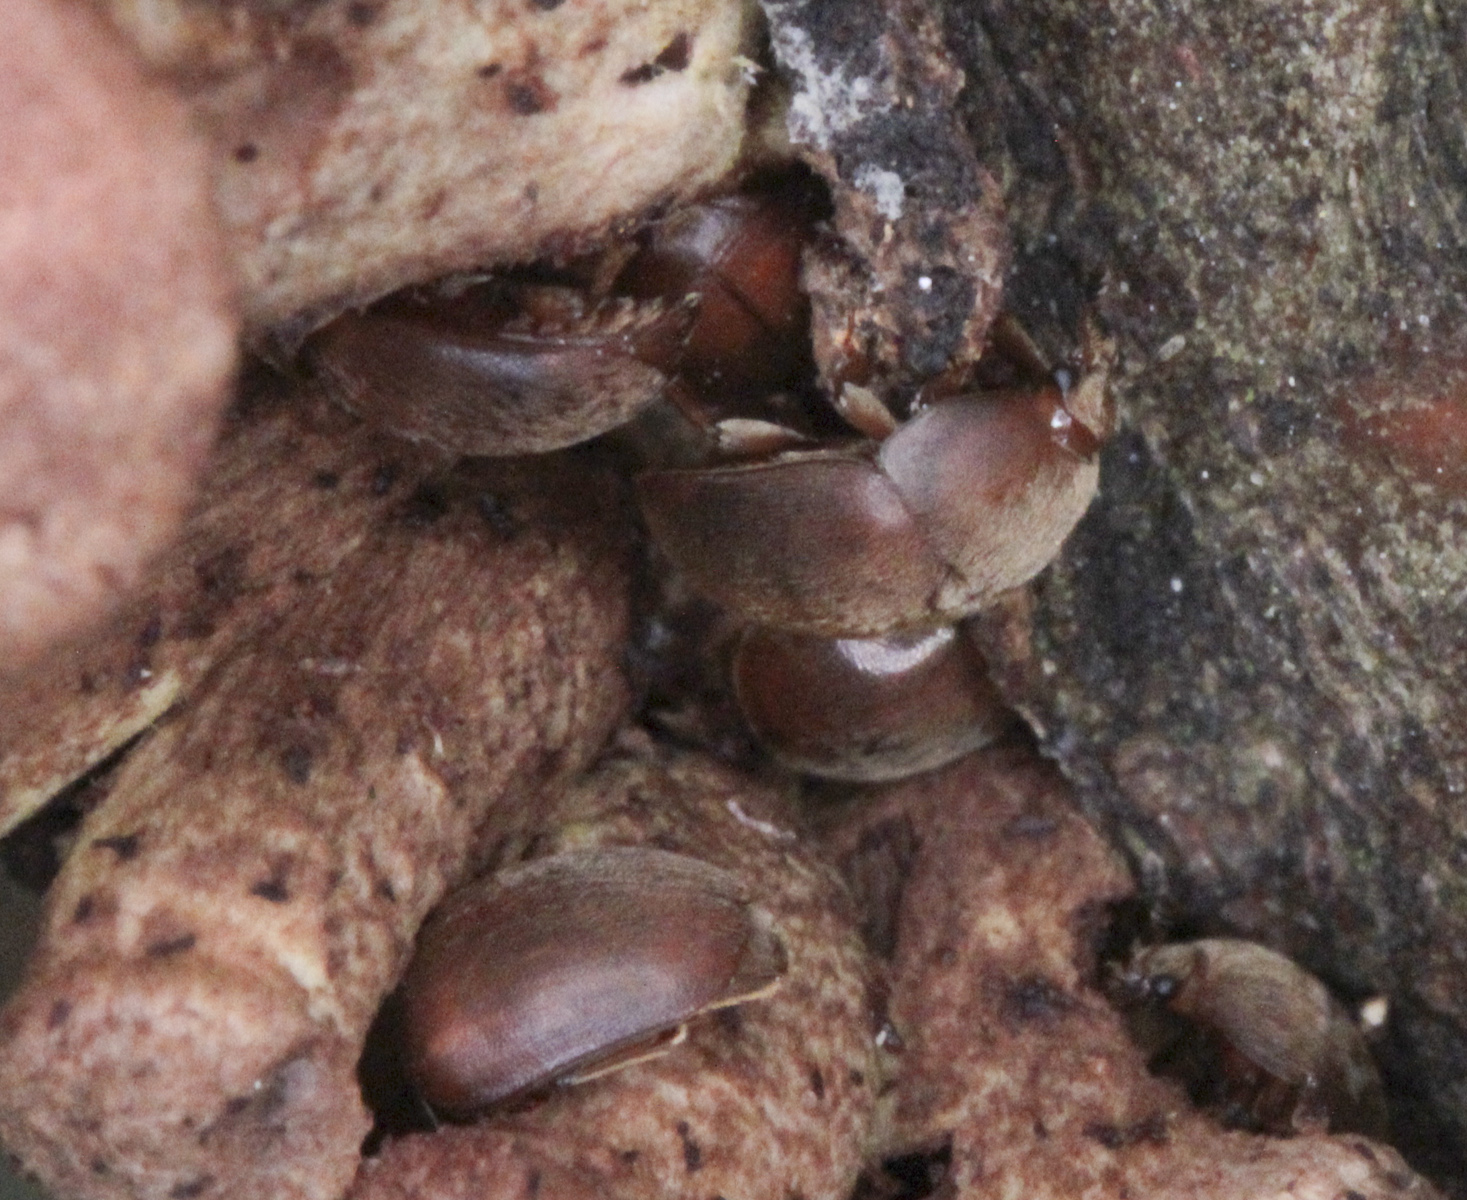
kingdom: Animalia
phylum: Arthropoda
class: Insecta
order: Coleoptera
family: Nitidulidae
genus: Cychramus
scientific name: Cychramus luteus
